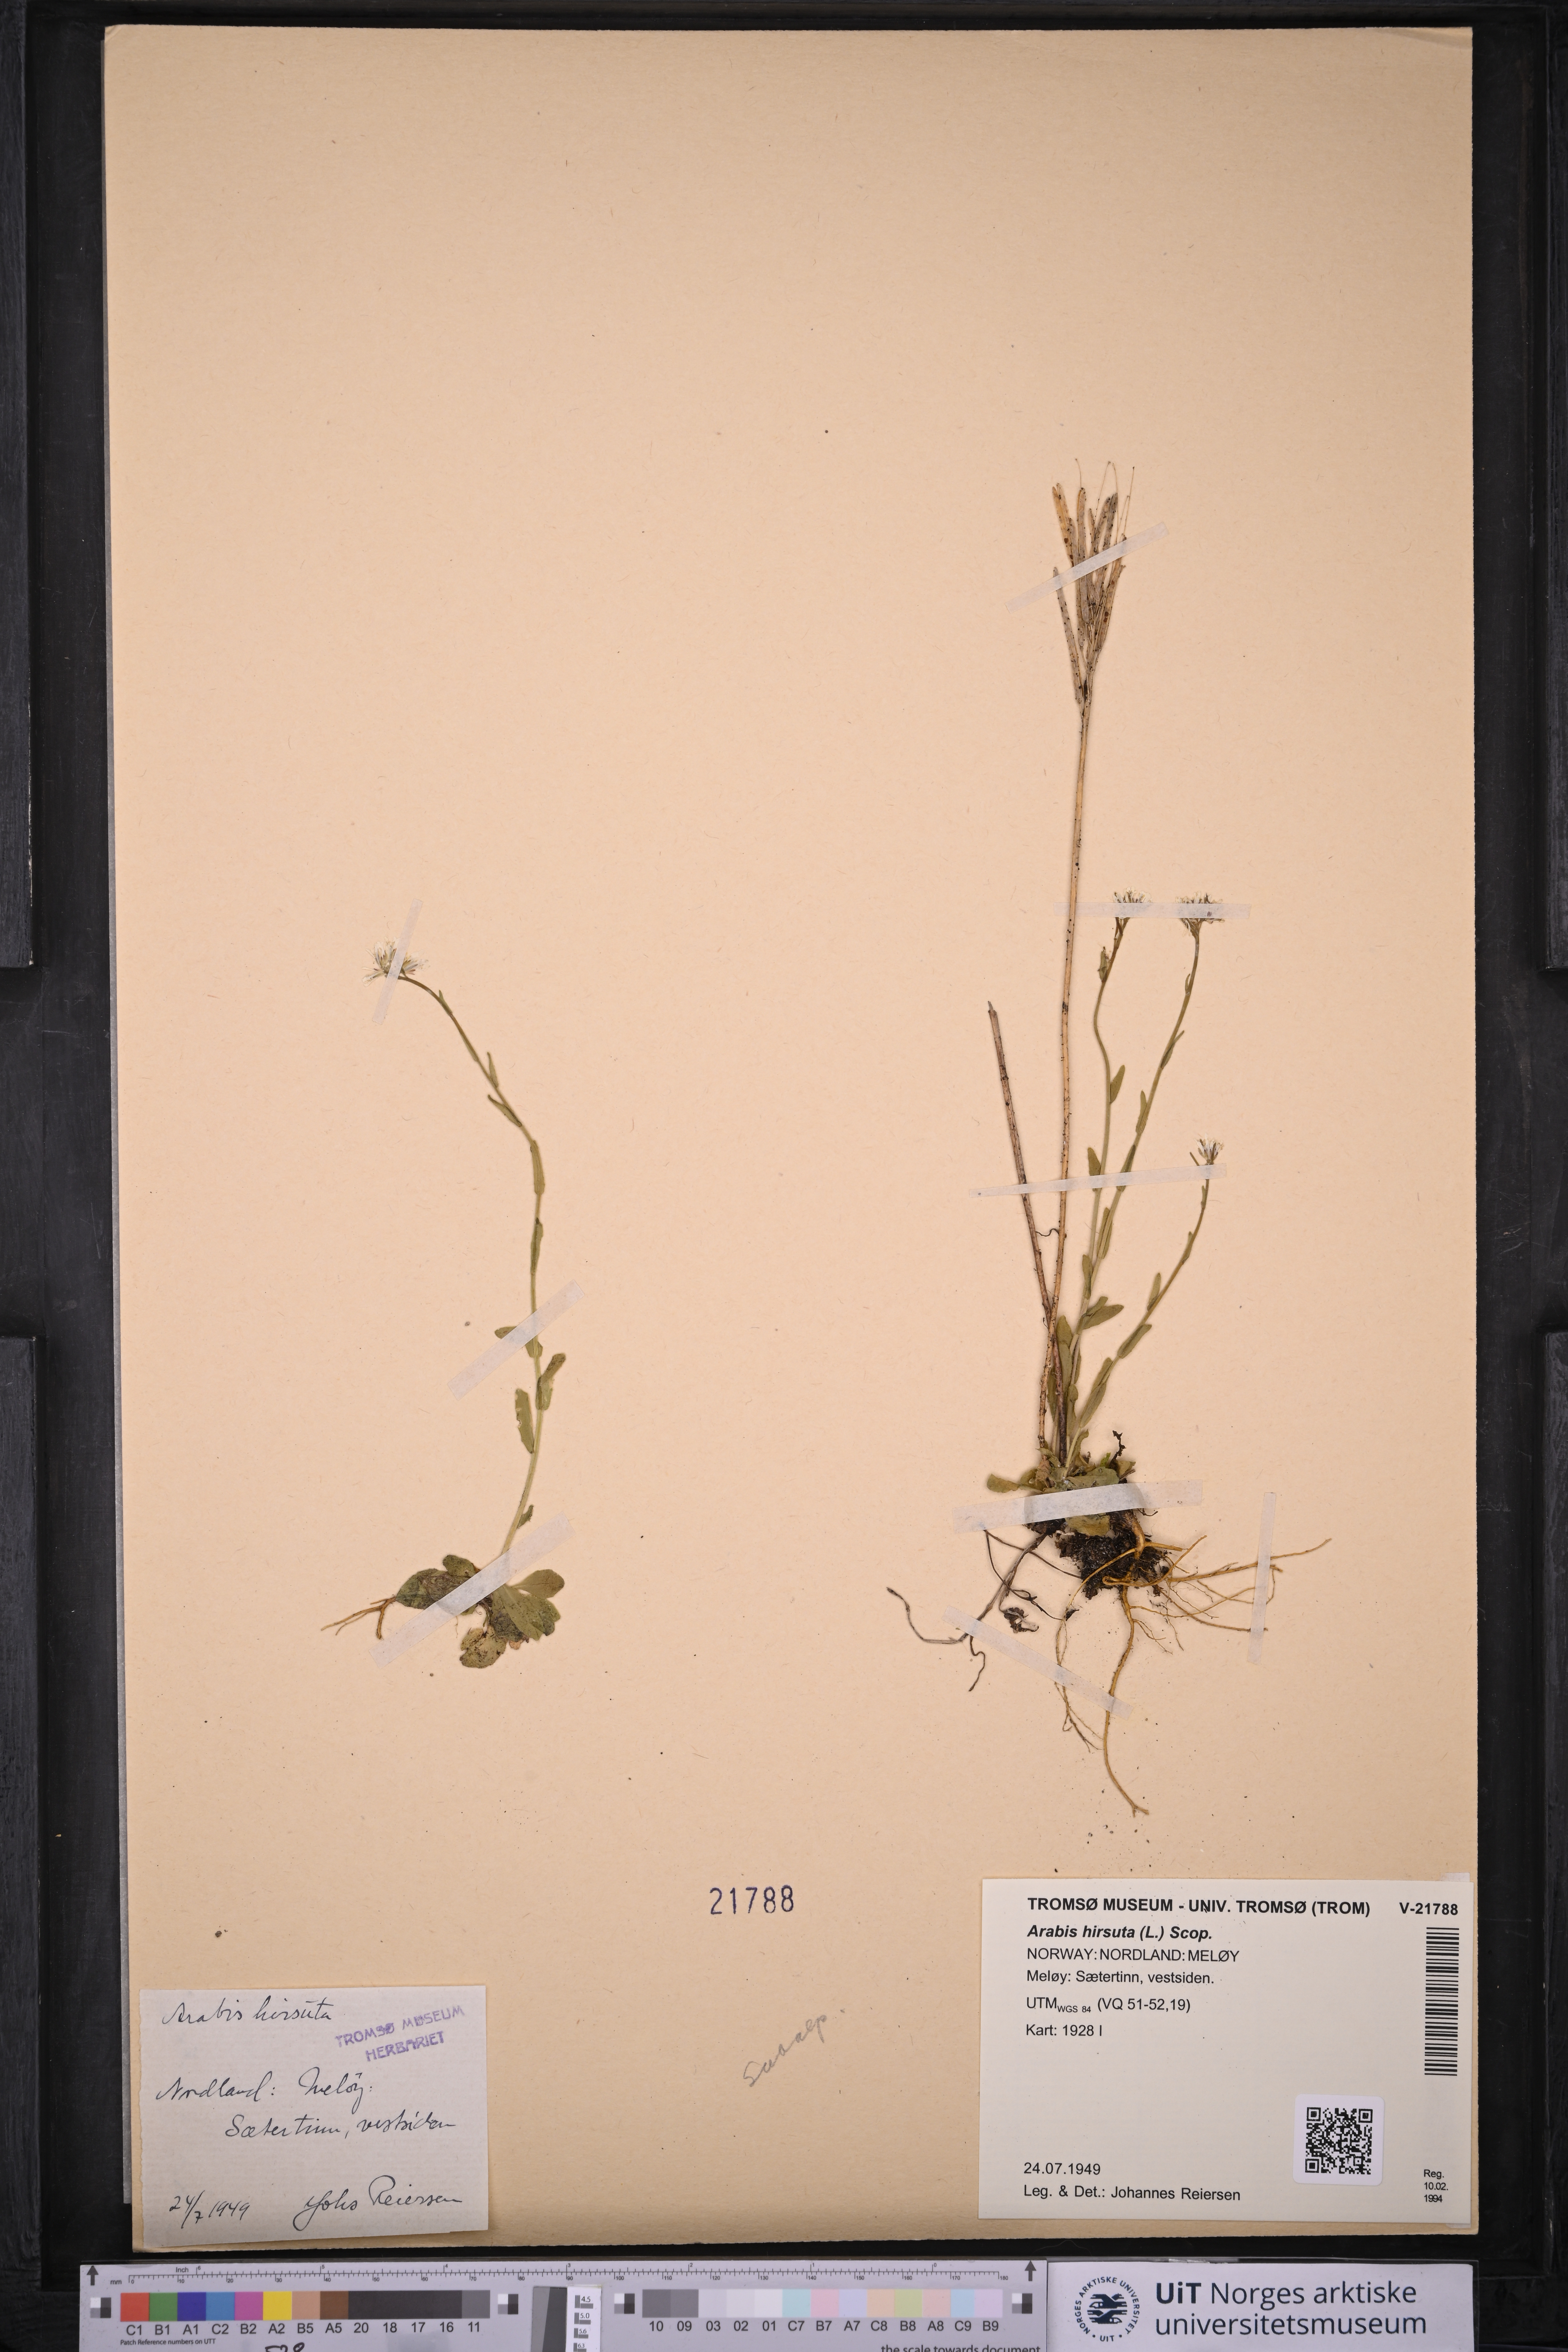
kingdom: Plantae
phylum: Tracheophyta
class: Magnoliopsida
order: Brassicales
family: Brassicaceae
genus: Arabis
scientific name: Arabis hirsuta
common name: Hairy rock-cress
